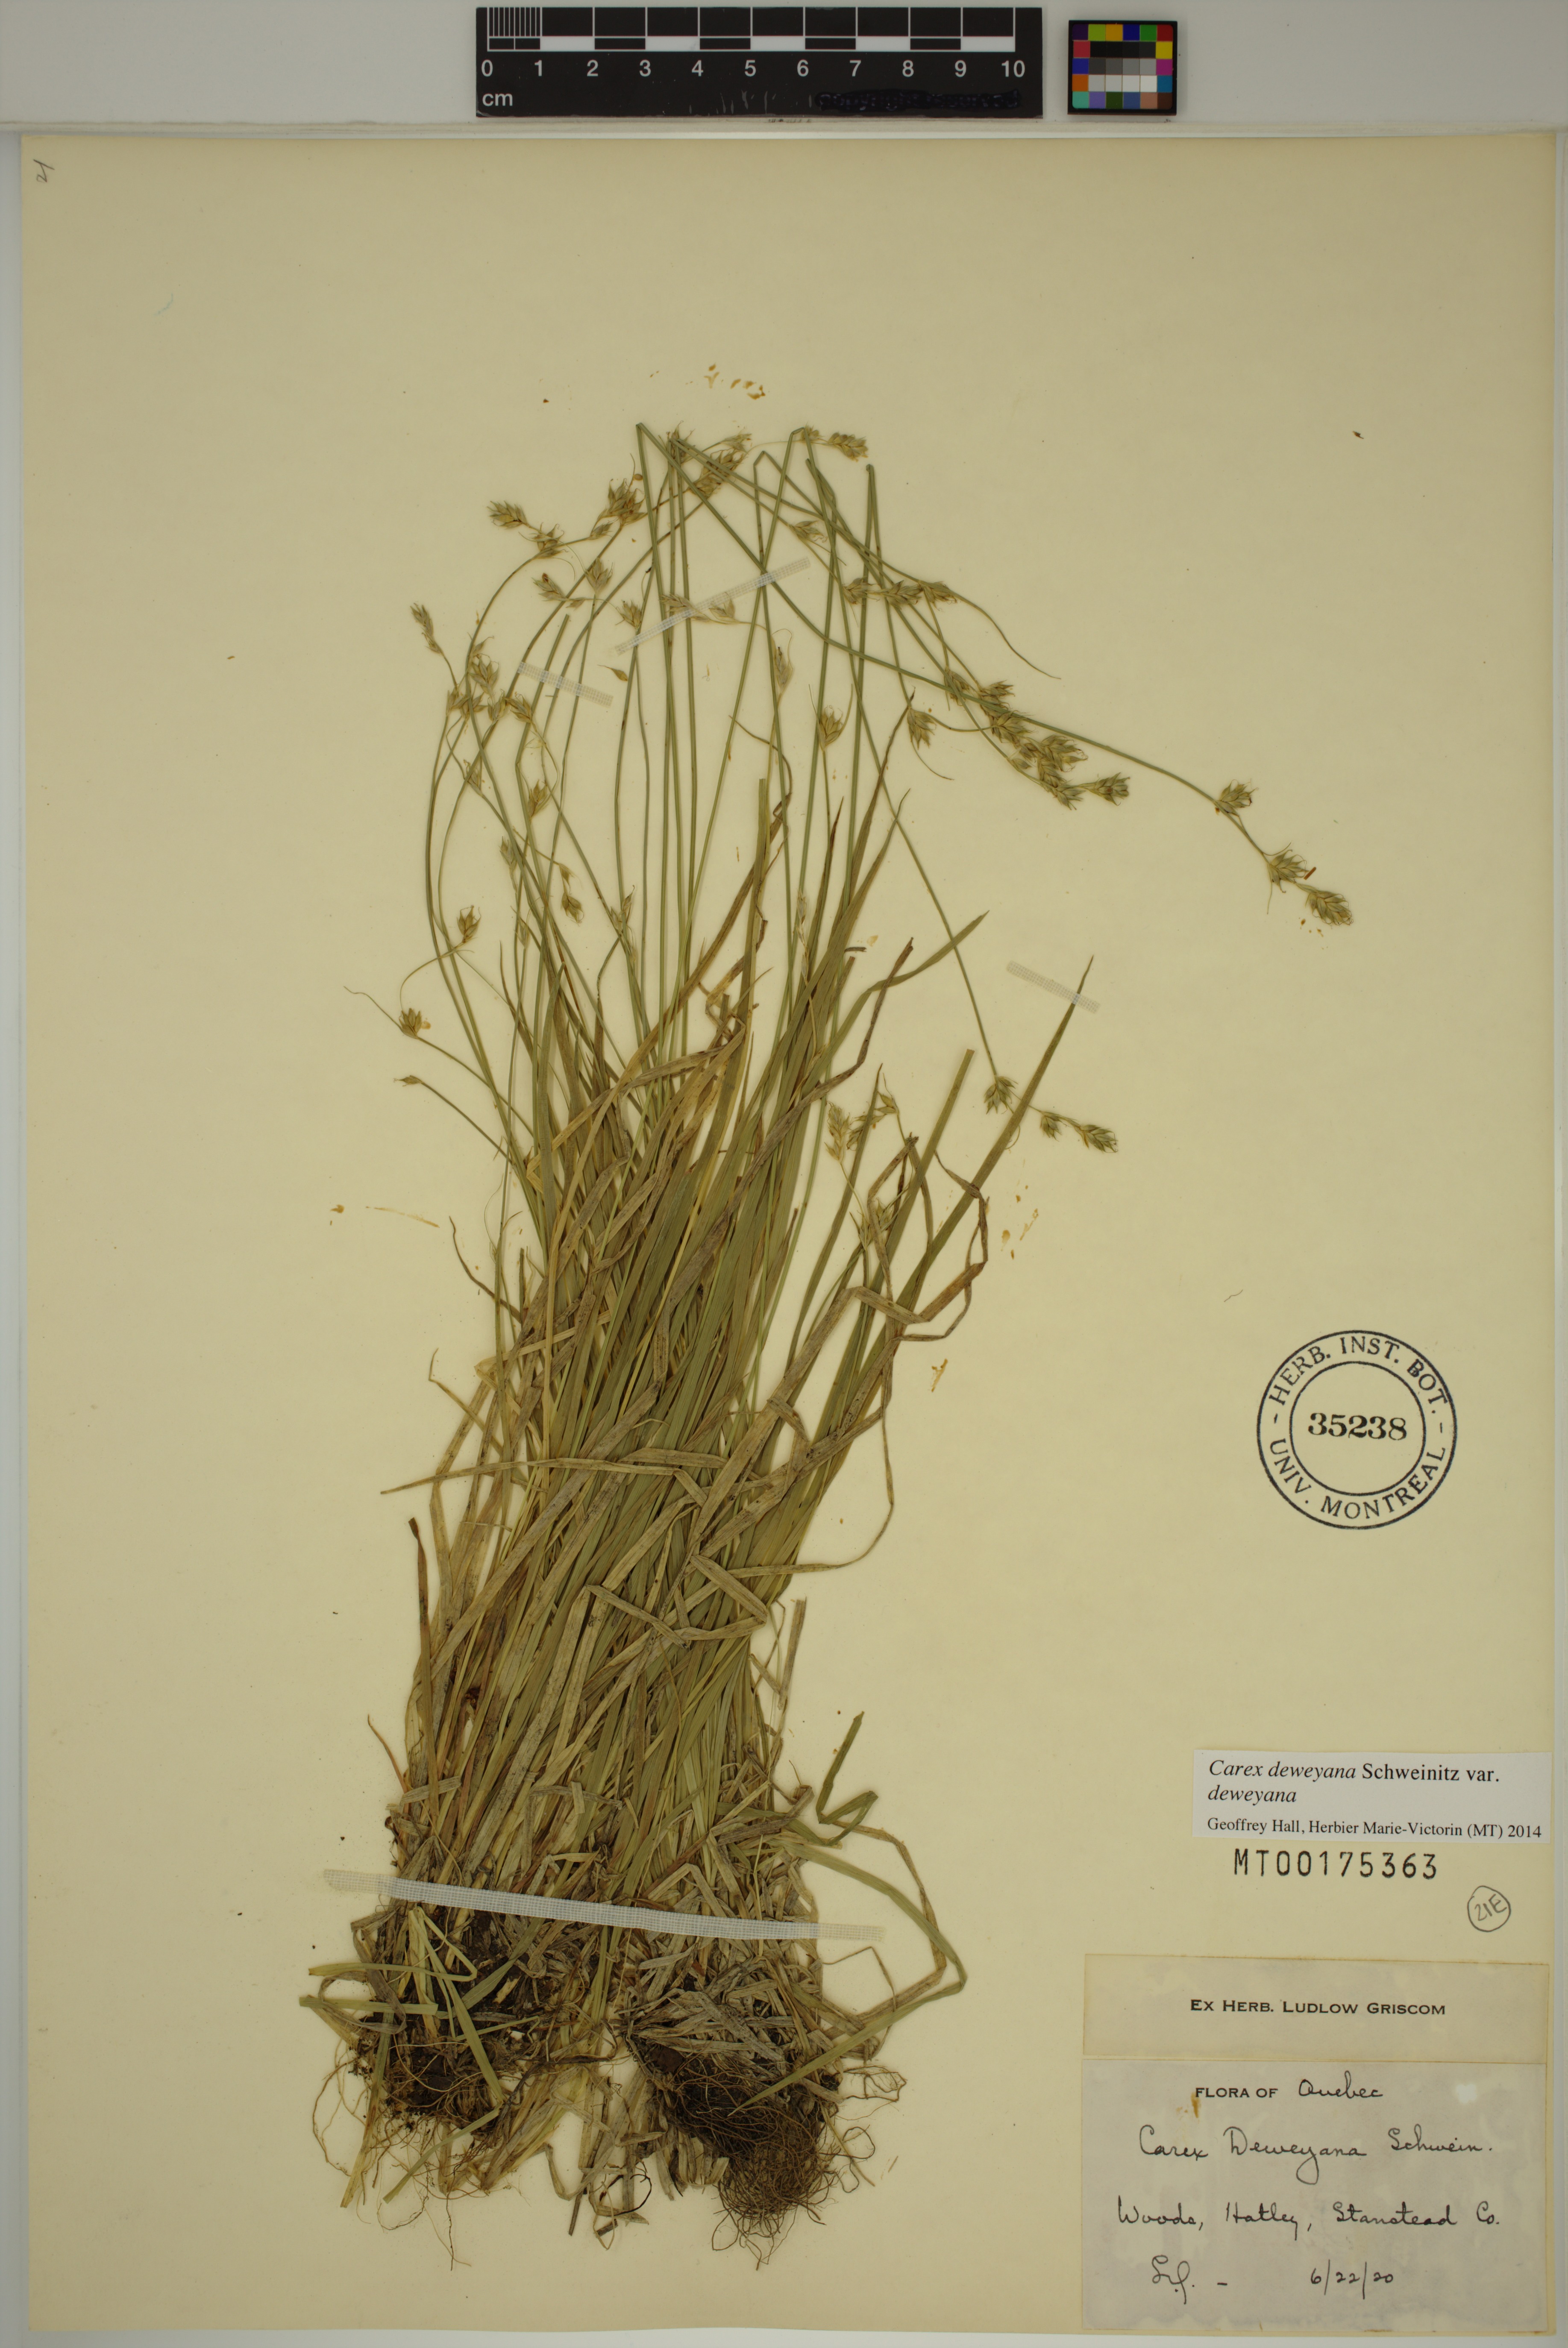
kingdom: Plantae
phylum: Tracheophyta
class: Liliopsida
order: Poales
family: Cyperaceae
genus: Carex
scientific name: Carex deweyana
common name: Dewey's sedge
